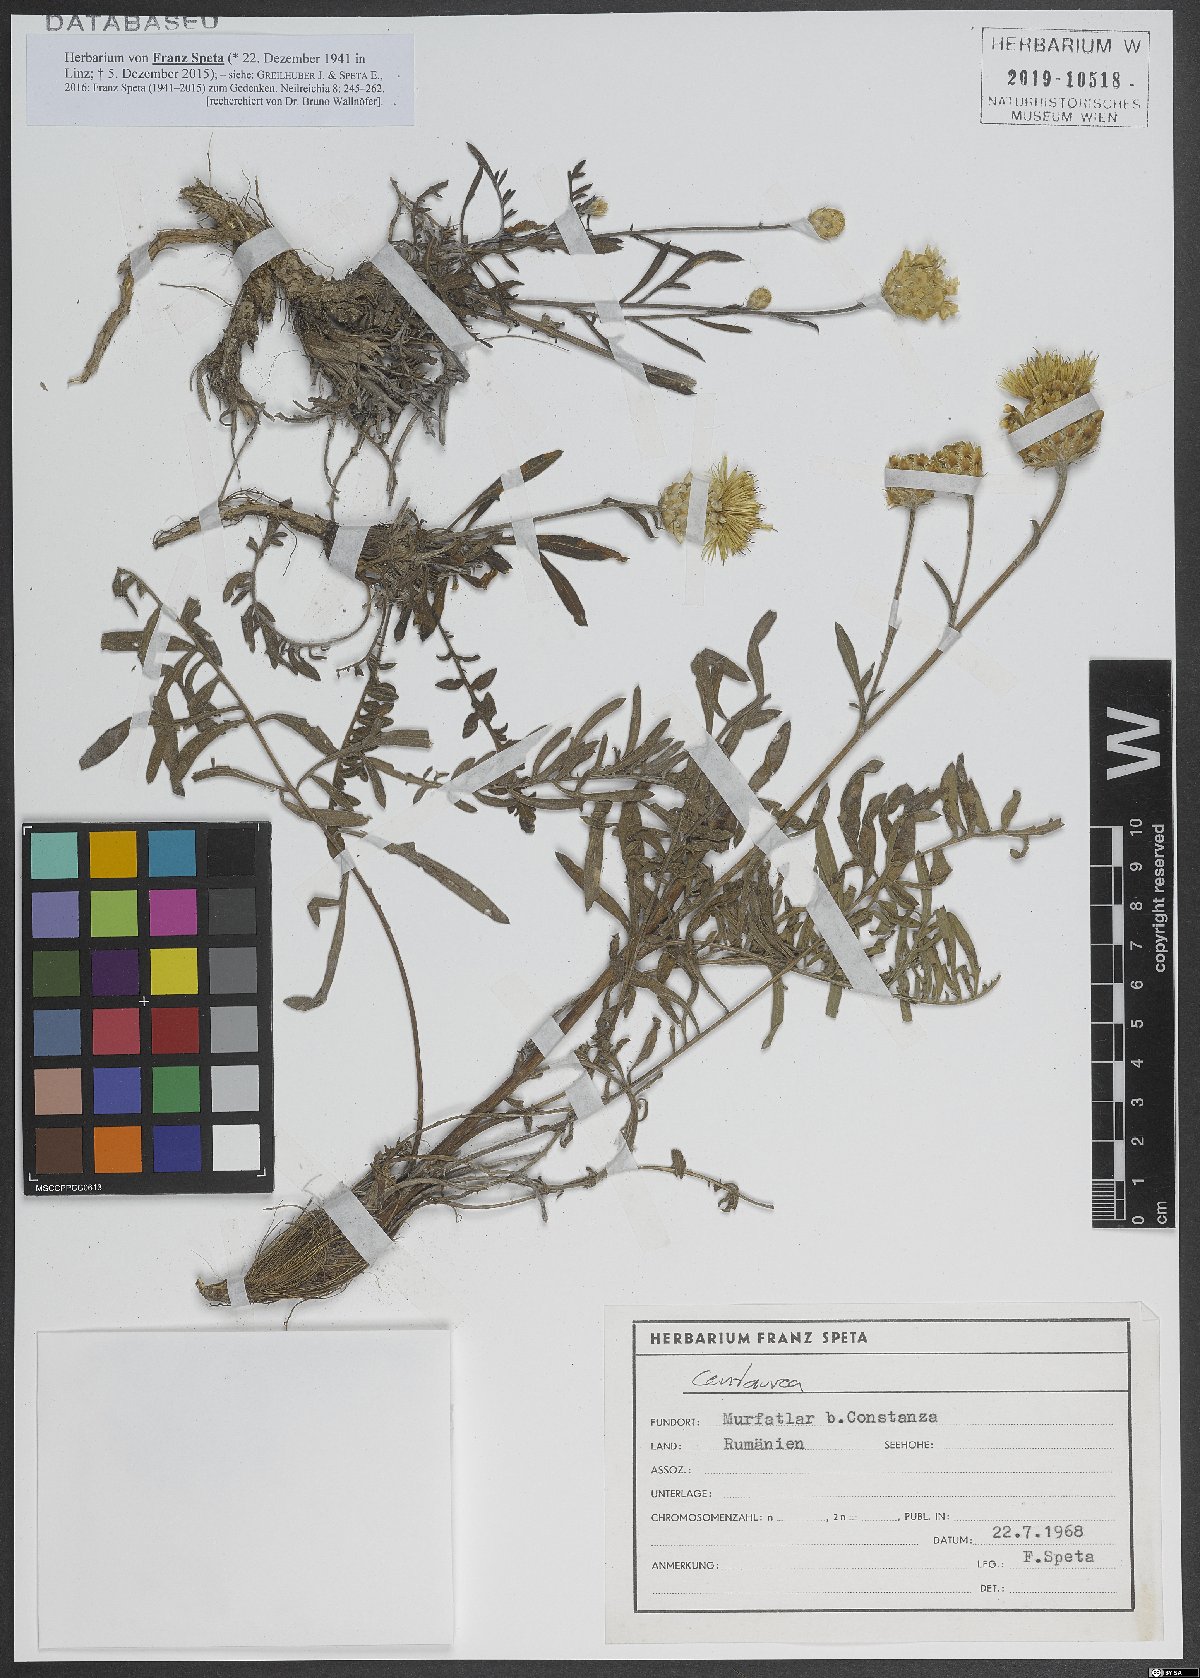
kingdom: Plantae
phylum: Tracheophyta
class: Magnoliopsida
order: Asterales
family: Asteraceae
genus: Centaurea
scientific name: Centaurea
